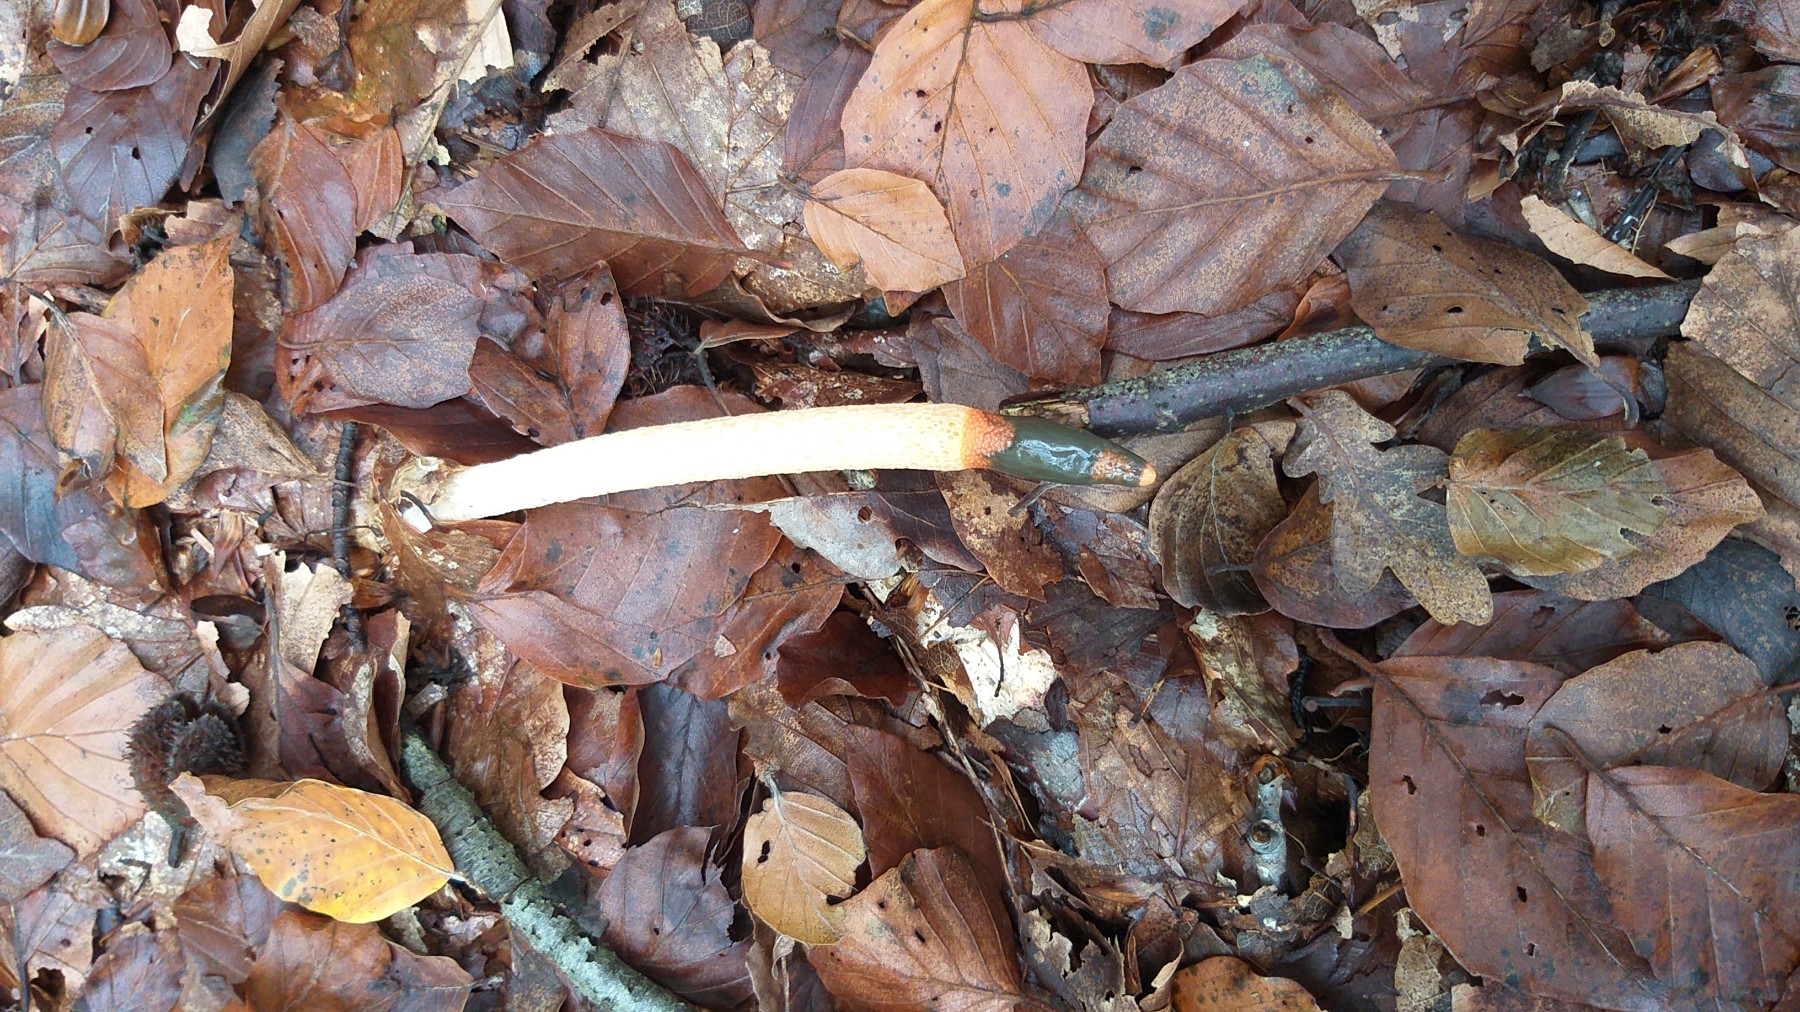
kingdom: Fungi
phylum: Basidiomycota
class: Agaricomycetes
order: Phallales
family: Phallaceae
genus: Mutinus
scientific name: Mutinus caninus
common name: hunde-stinksvamp
